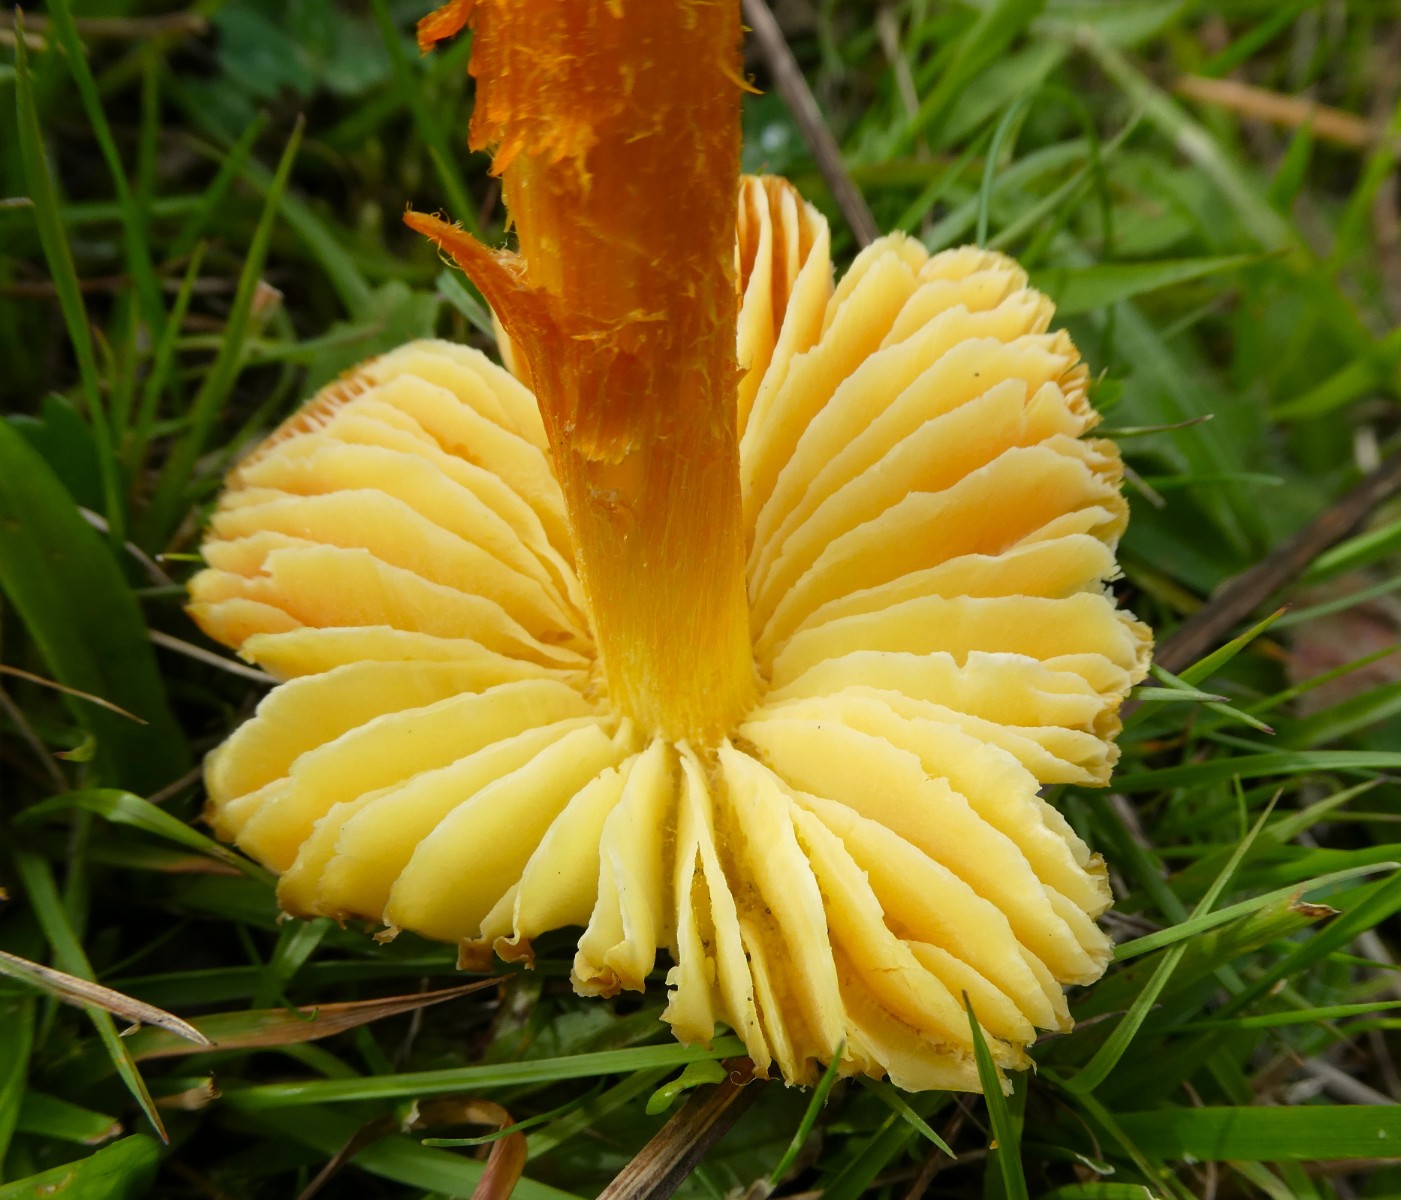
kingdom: Fungi
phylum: Basidiomycota
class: Agaricomycetes
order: Agaricales
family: Hygrophoraceae
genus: Hygrocybe
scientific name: Hygrocybe intermedia
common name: trævlet vokshat
